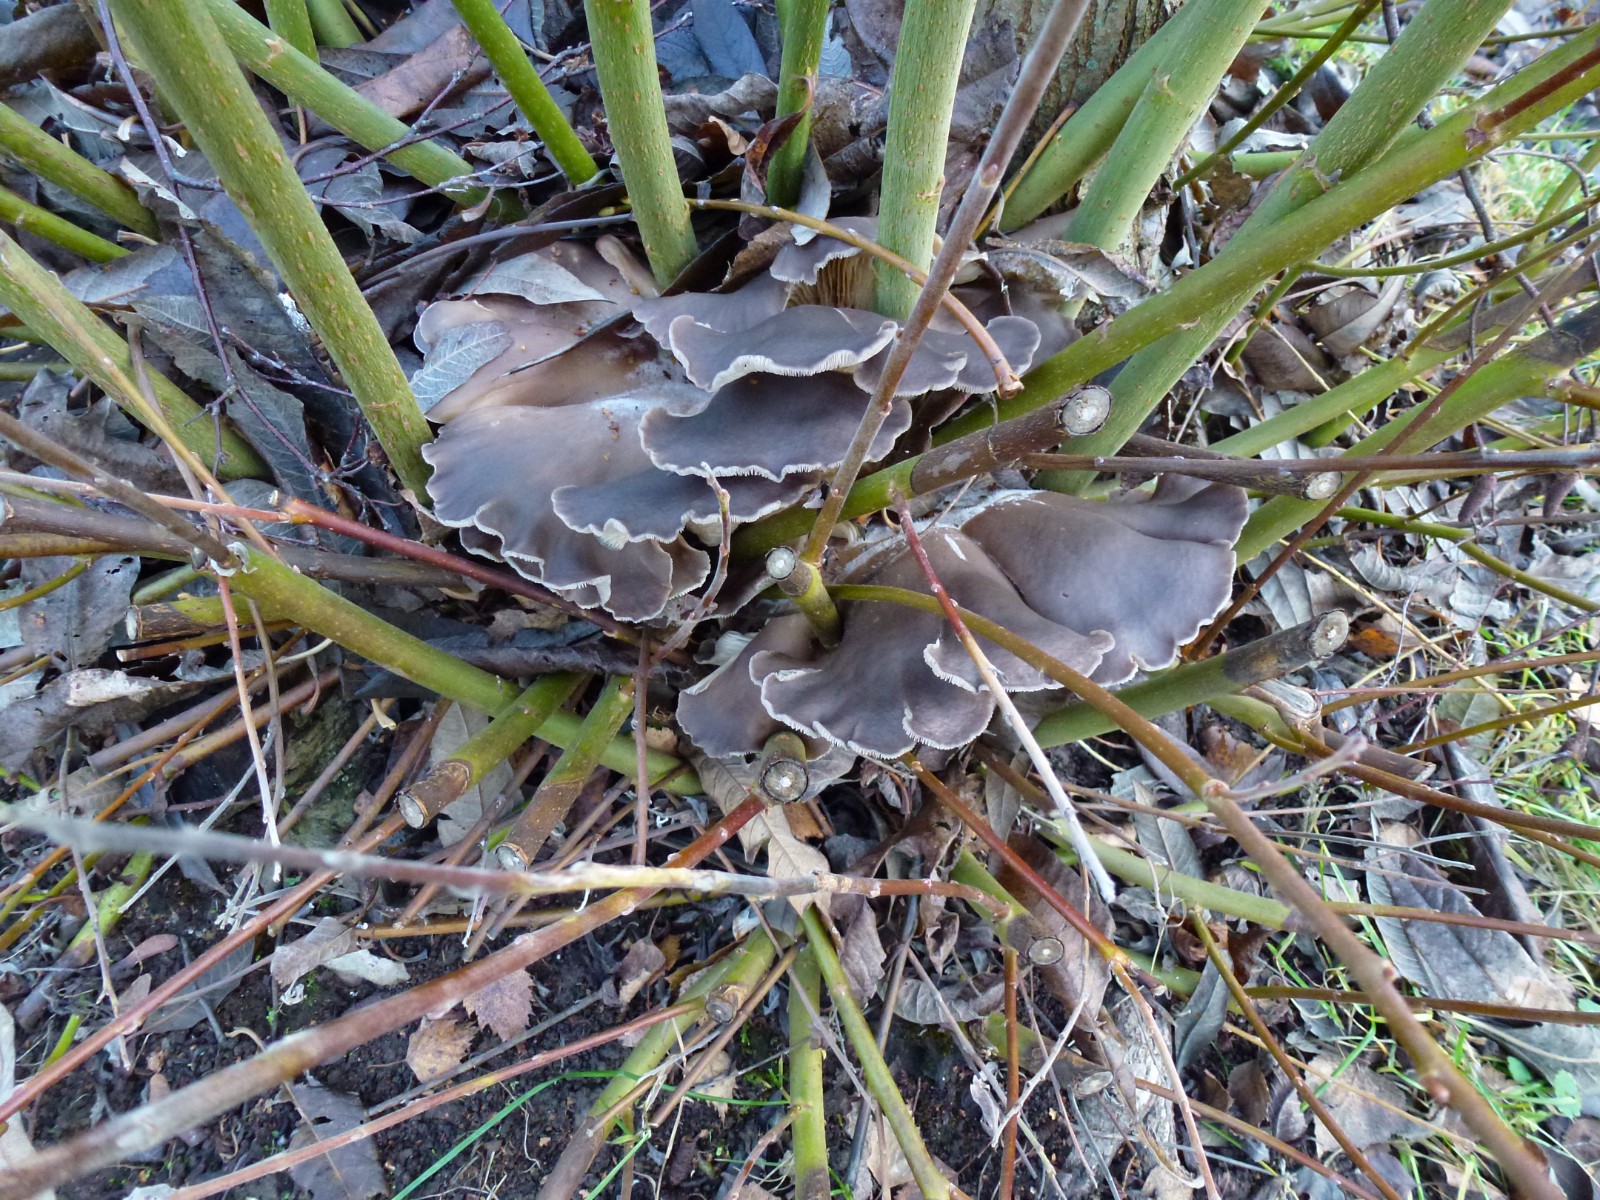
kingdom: Fungi
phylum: Basidiomycota
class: Agaricomycetes
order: Agaricales
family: Pleurotaceae
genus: Pleurotus
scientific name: Pleurotus ostreatus
